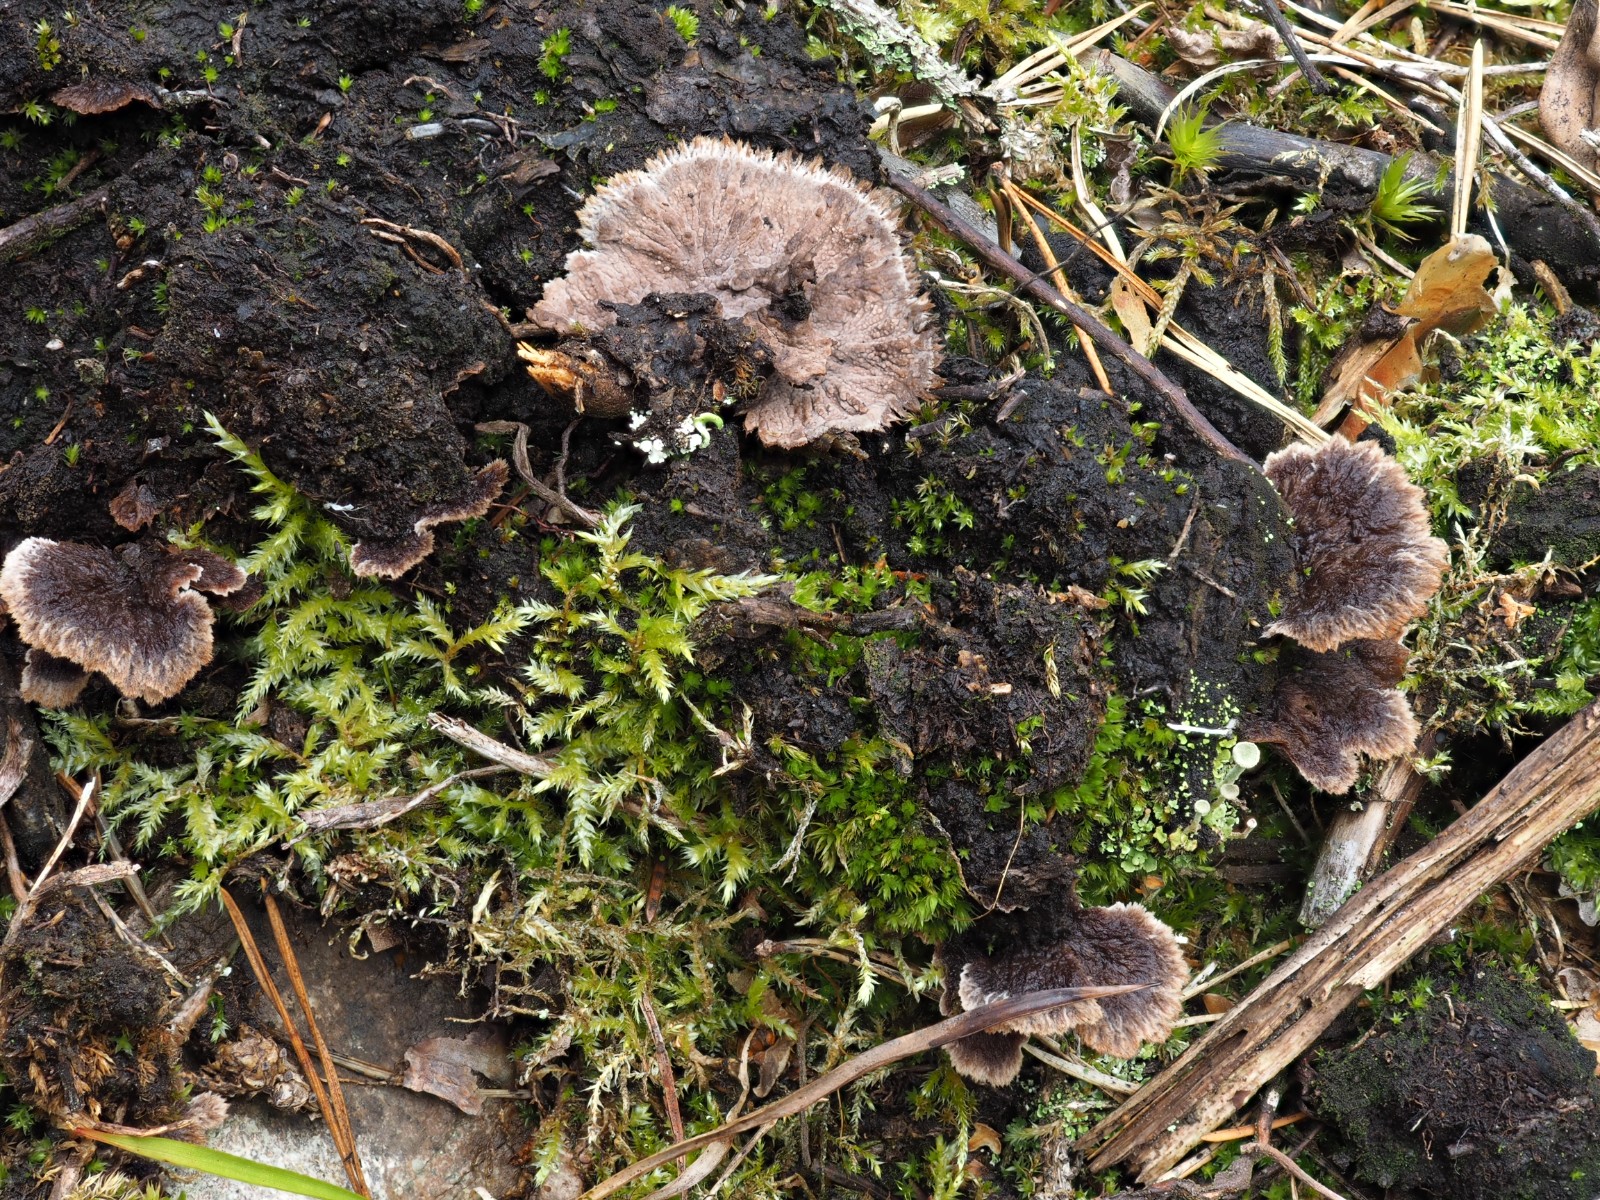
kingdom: Fungi
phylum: Basidiomycota
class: Agaricomycetes
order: Thelephorales
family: Thelephoraceae
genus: Thelephora
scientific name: Thelephora terrestris
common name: fliget frynsesvamp
